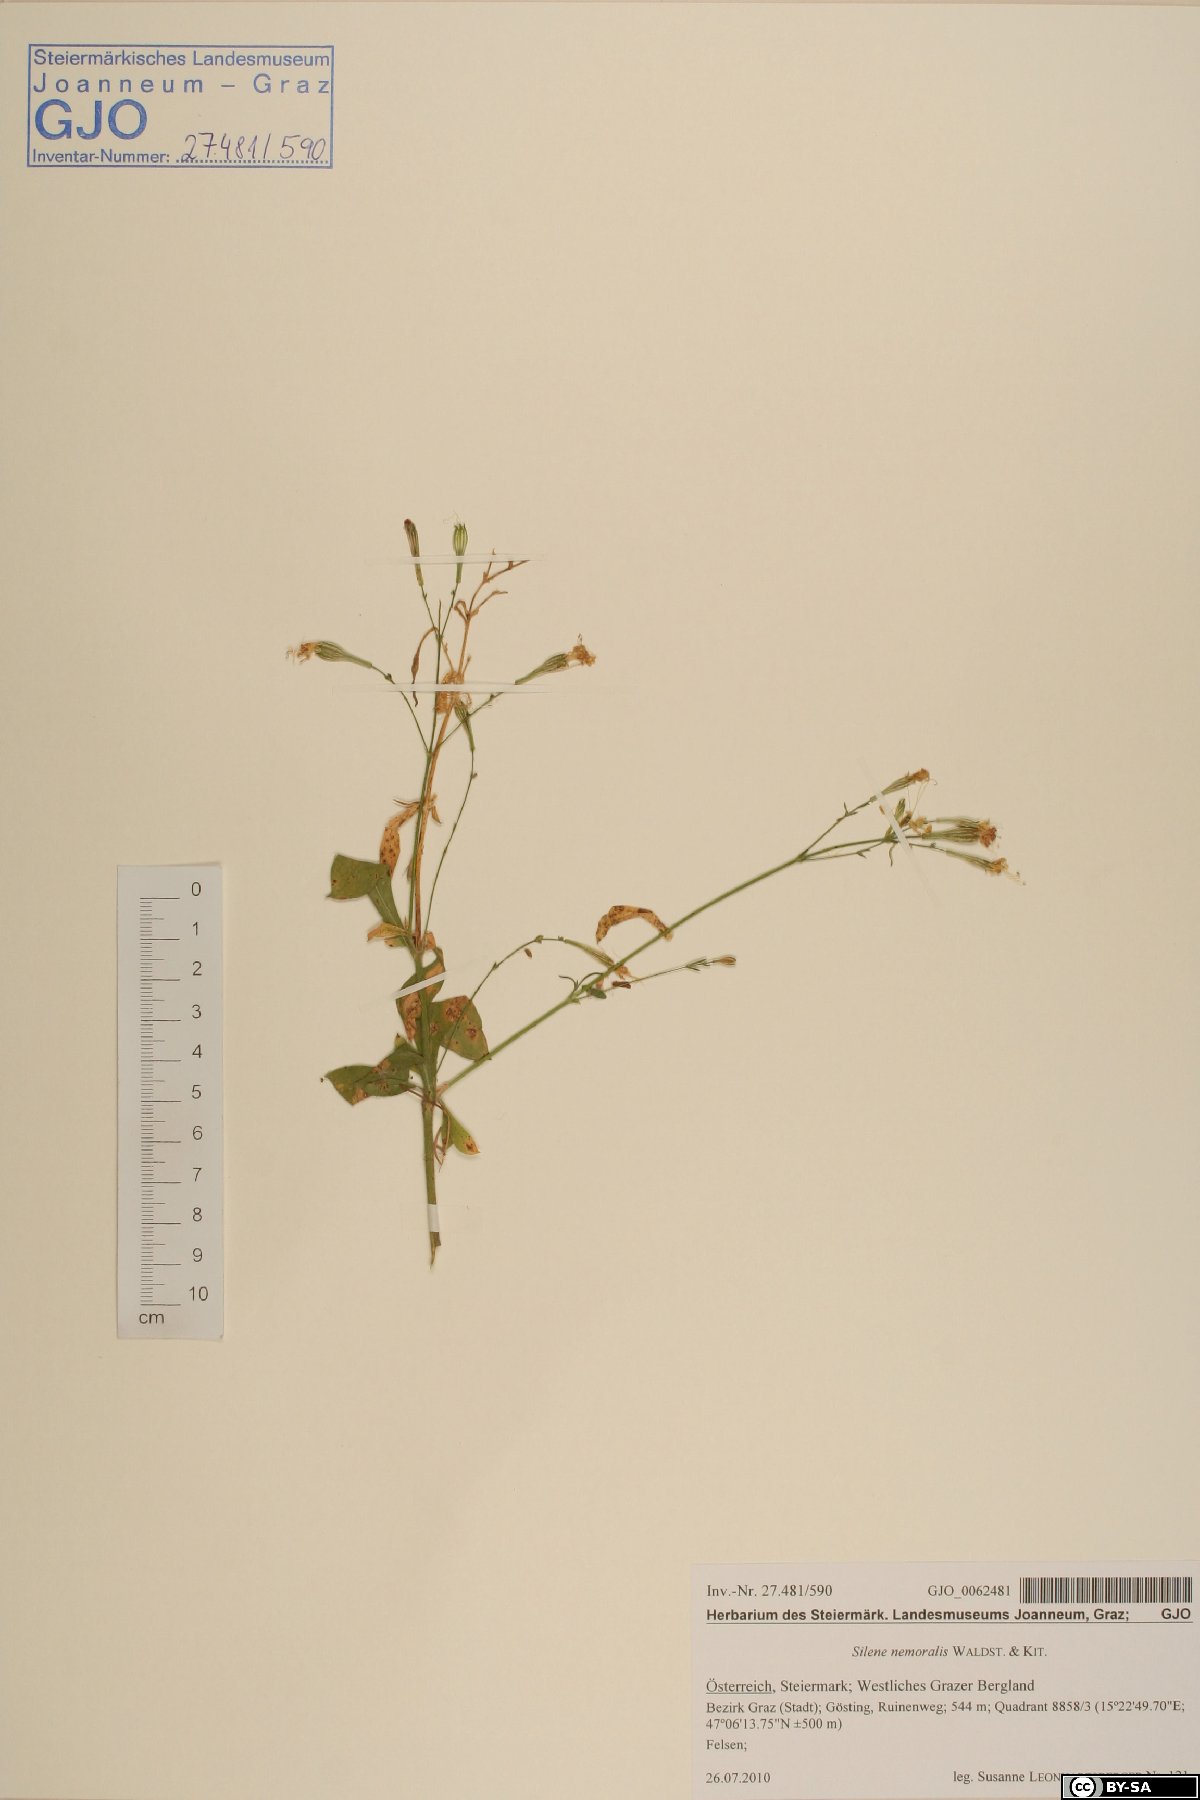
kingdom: Plantae
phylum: Tracheophyta
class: Magnoliopsida
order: Caryophyllales
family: Caryophyllaceae
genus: Silene
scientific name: Silene nemoralis
